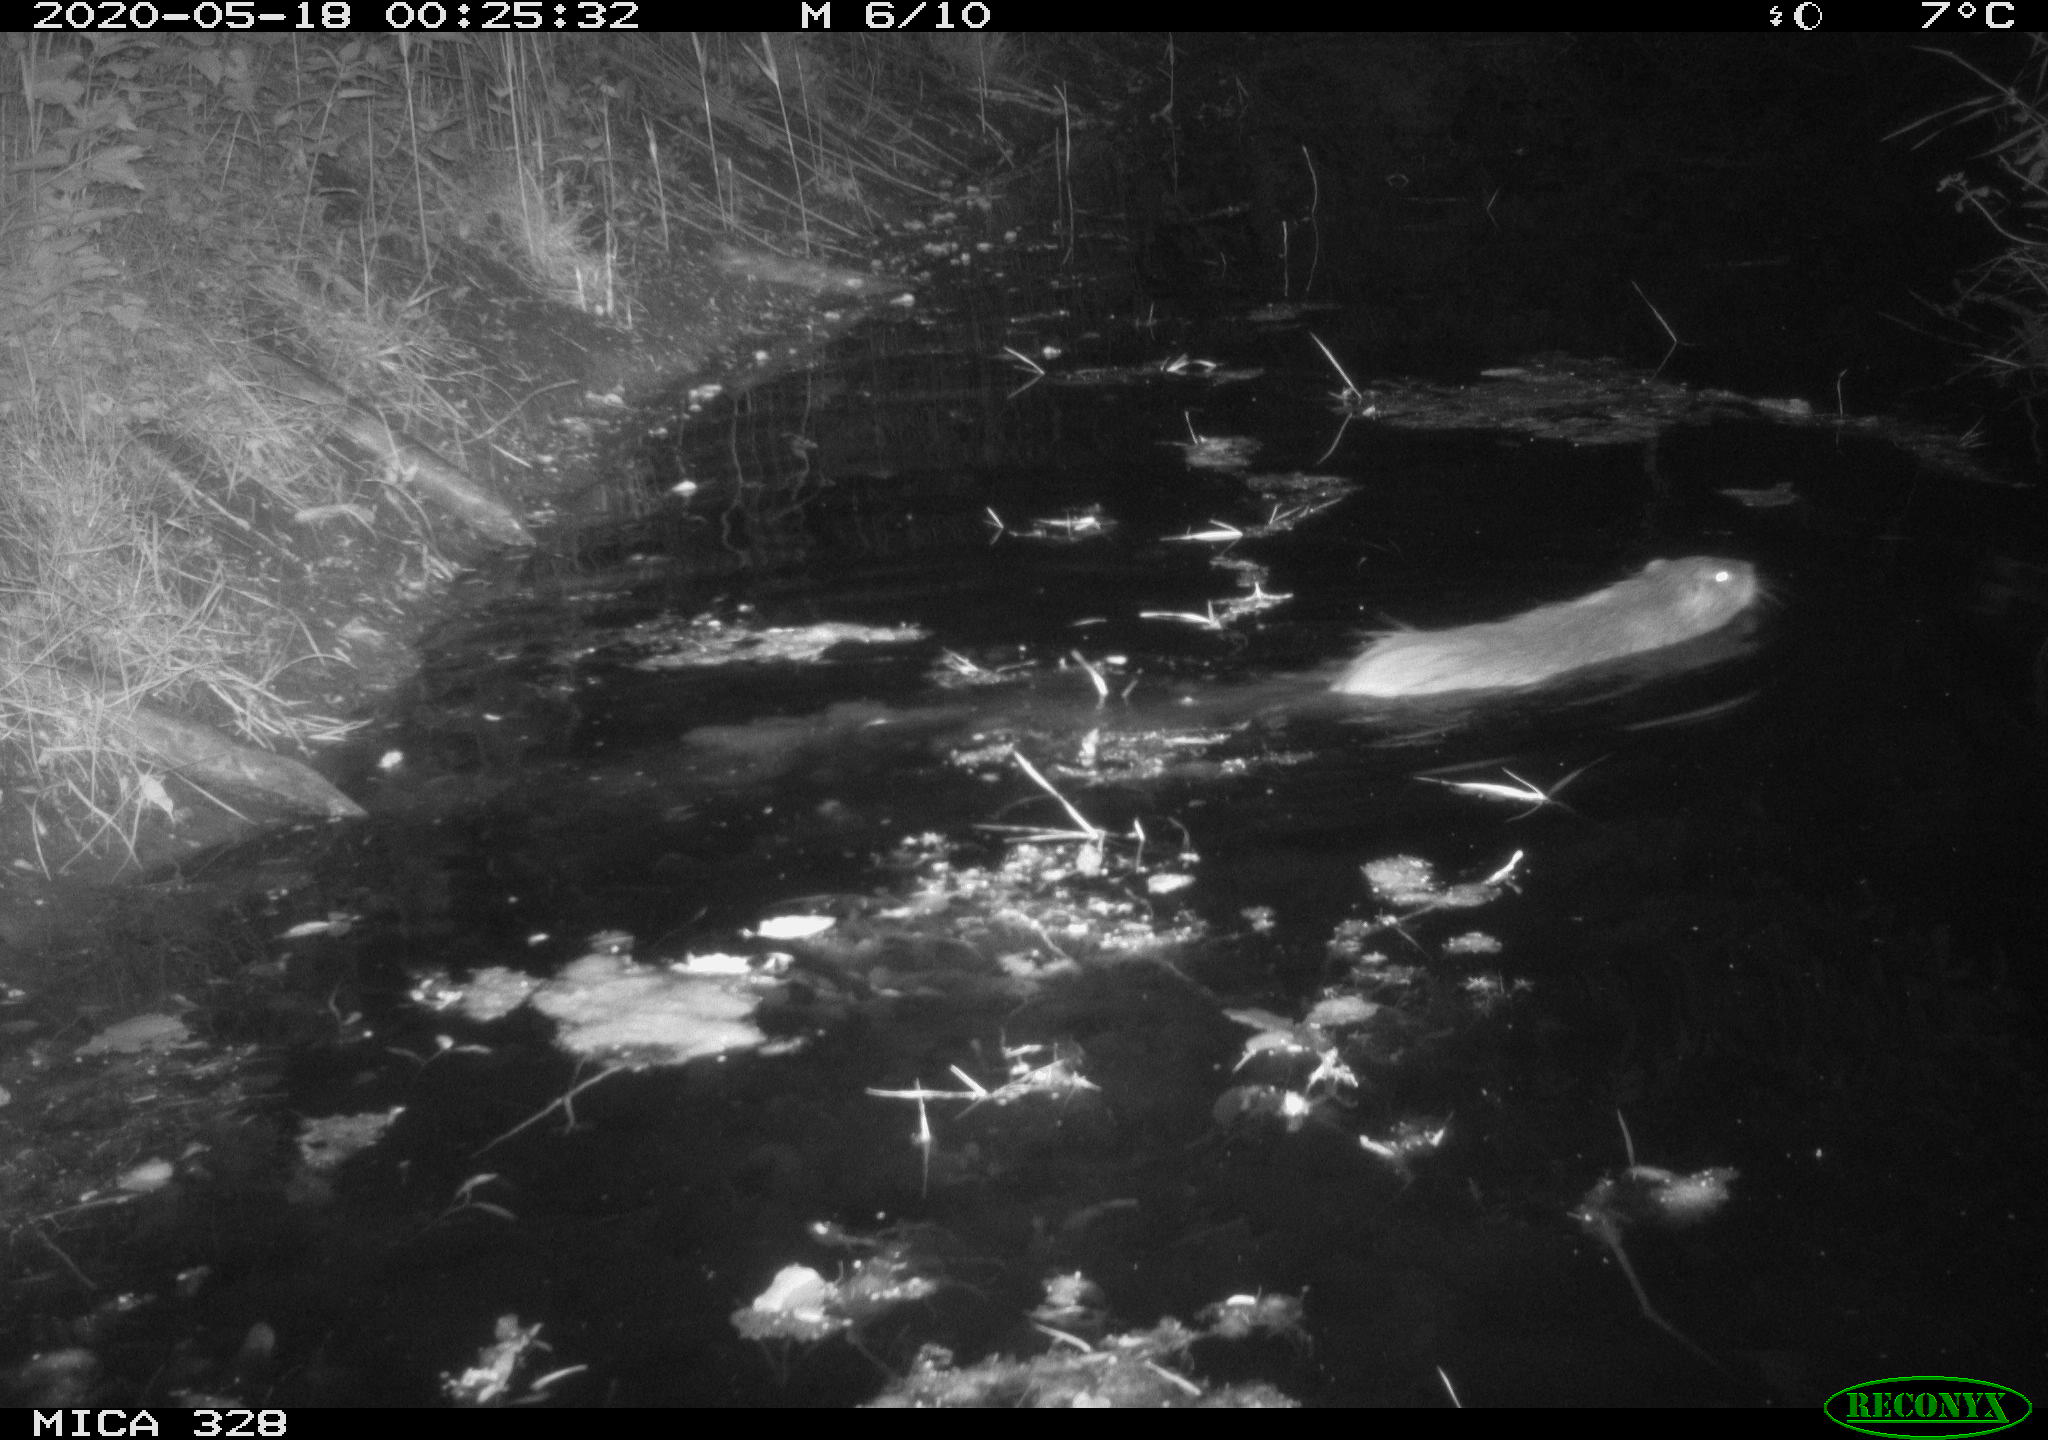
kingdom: Animalia
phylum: Chordata
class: Mammalia
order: Rodentia
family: Myocastoridae
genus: Myocastor
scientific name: Myocastor coypus
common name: Coypu
